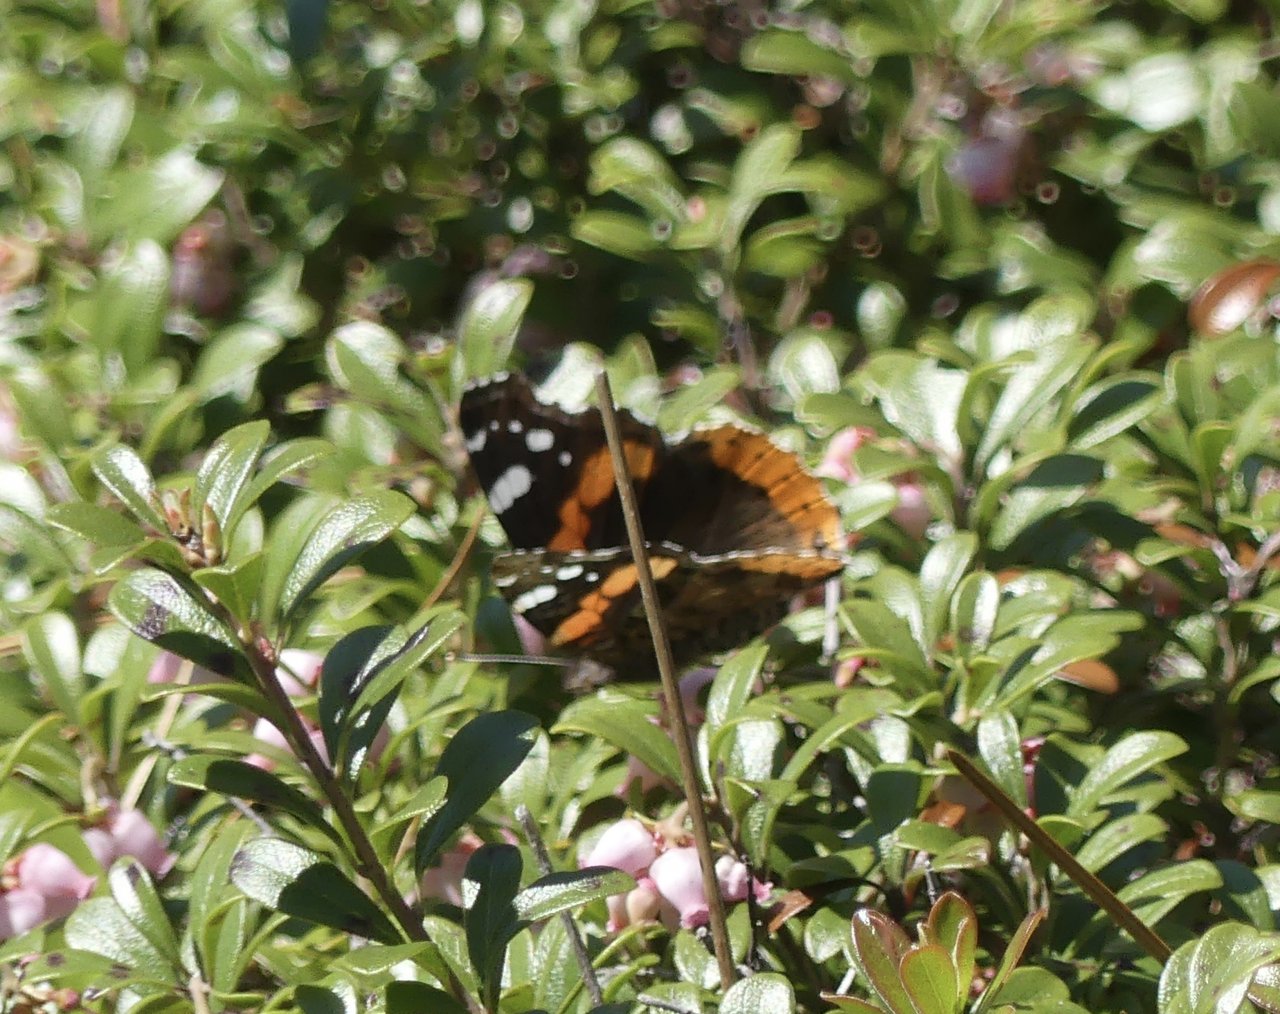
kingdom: Animalia
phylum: Arthropoda
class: Insecta
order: Lepidoptera
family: Nymphalidae
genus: Vanessa
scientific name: Vanessa atalanta
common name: Red Admiral
